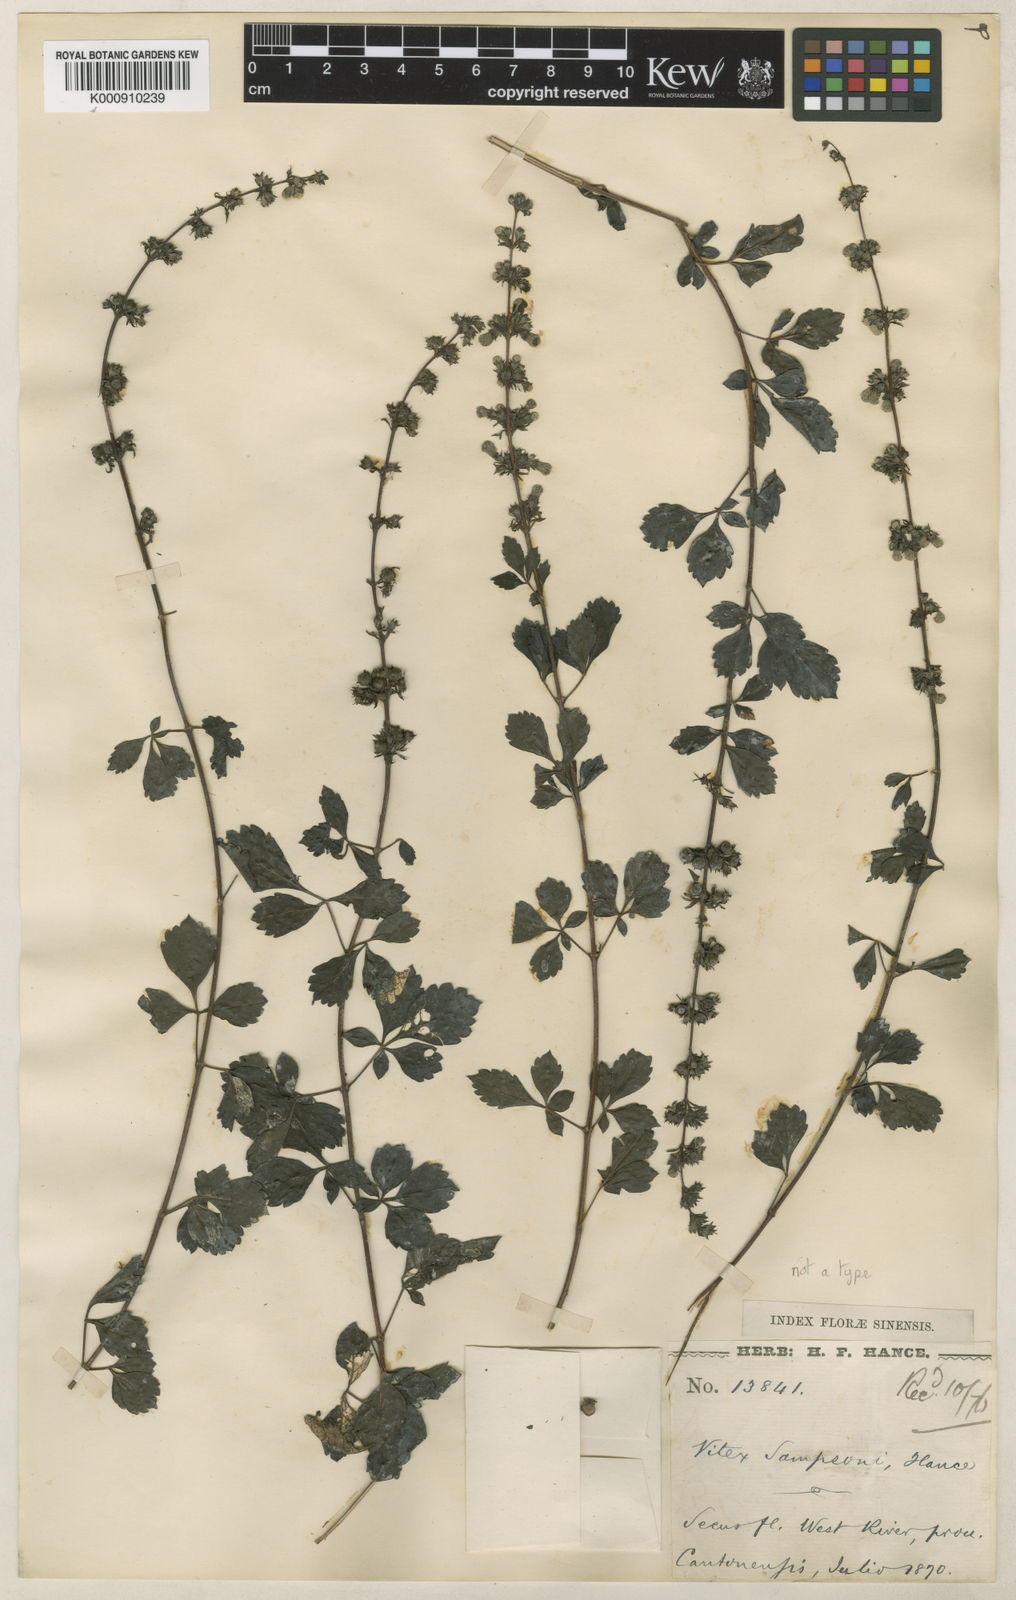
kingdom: Plantae
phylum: Tracheophyta
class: Magnoliopsida
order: Lamiales
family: Lamiaceae
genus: Vitex
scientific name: Vitex sampsonii
